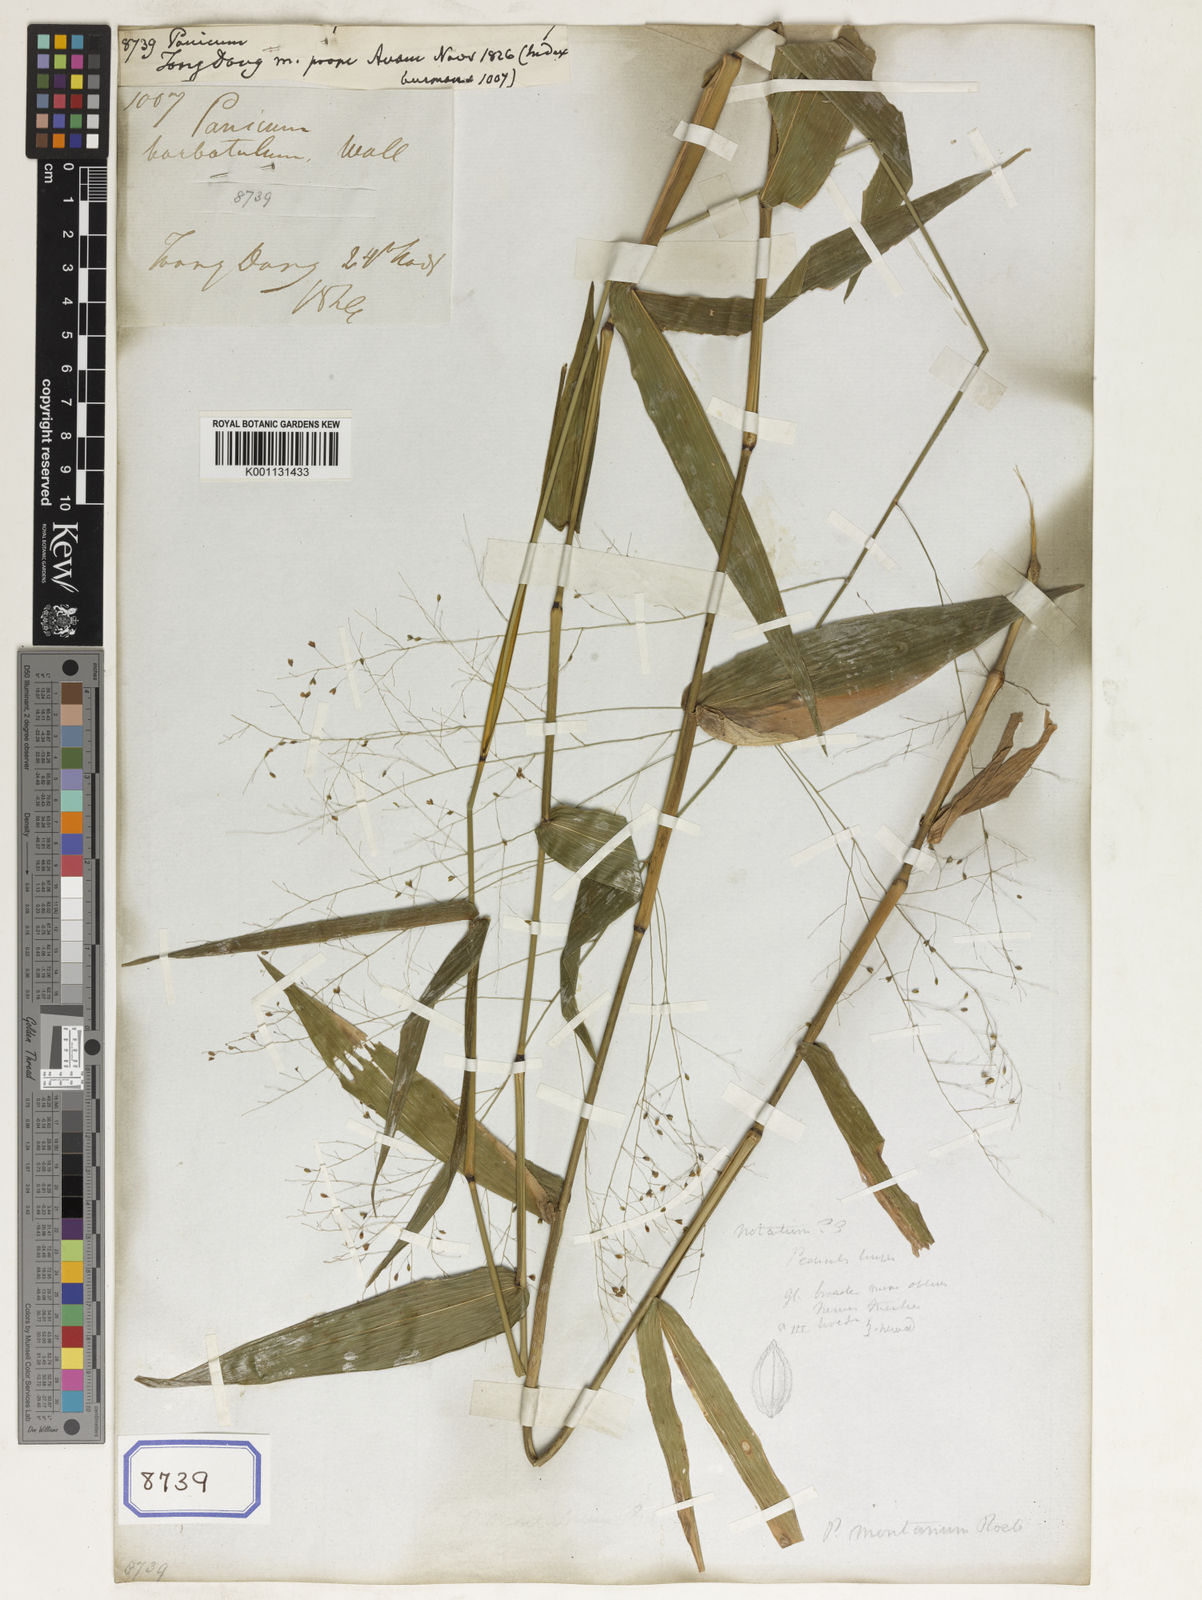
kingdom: Plantae
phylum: Tracheophyta
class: Liliopsida
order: Poales
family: Poaceae
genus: Panicum
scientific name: Panicum
